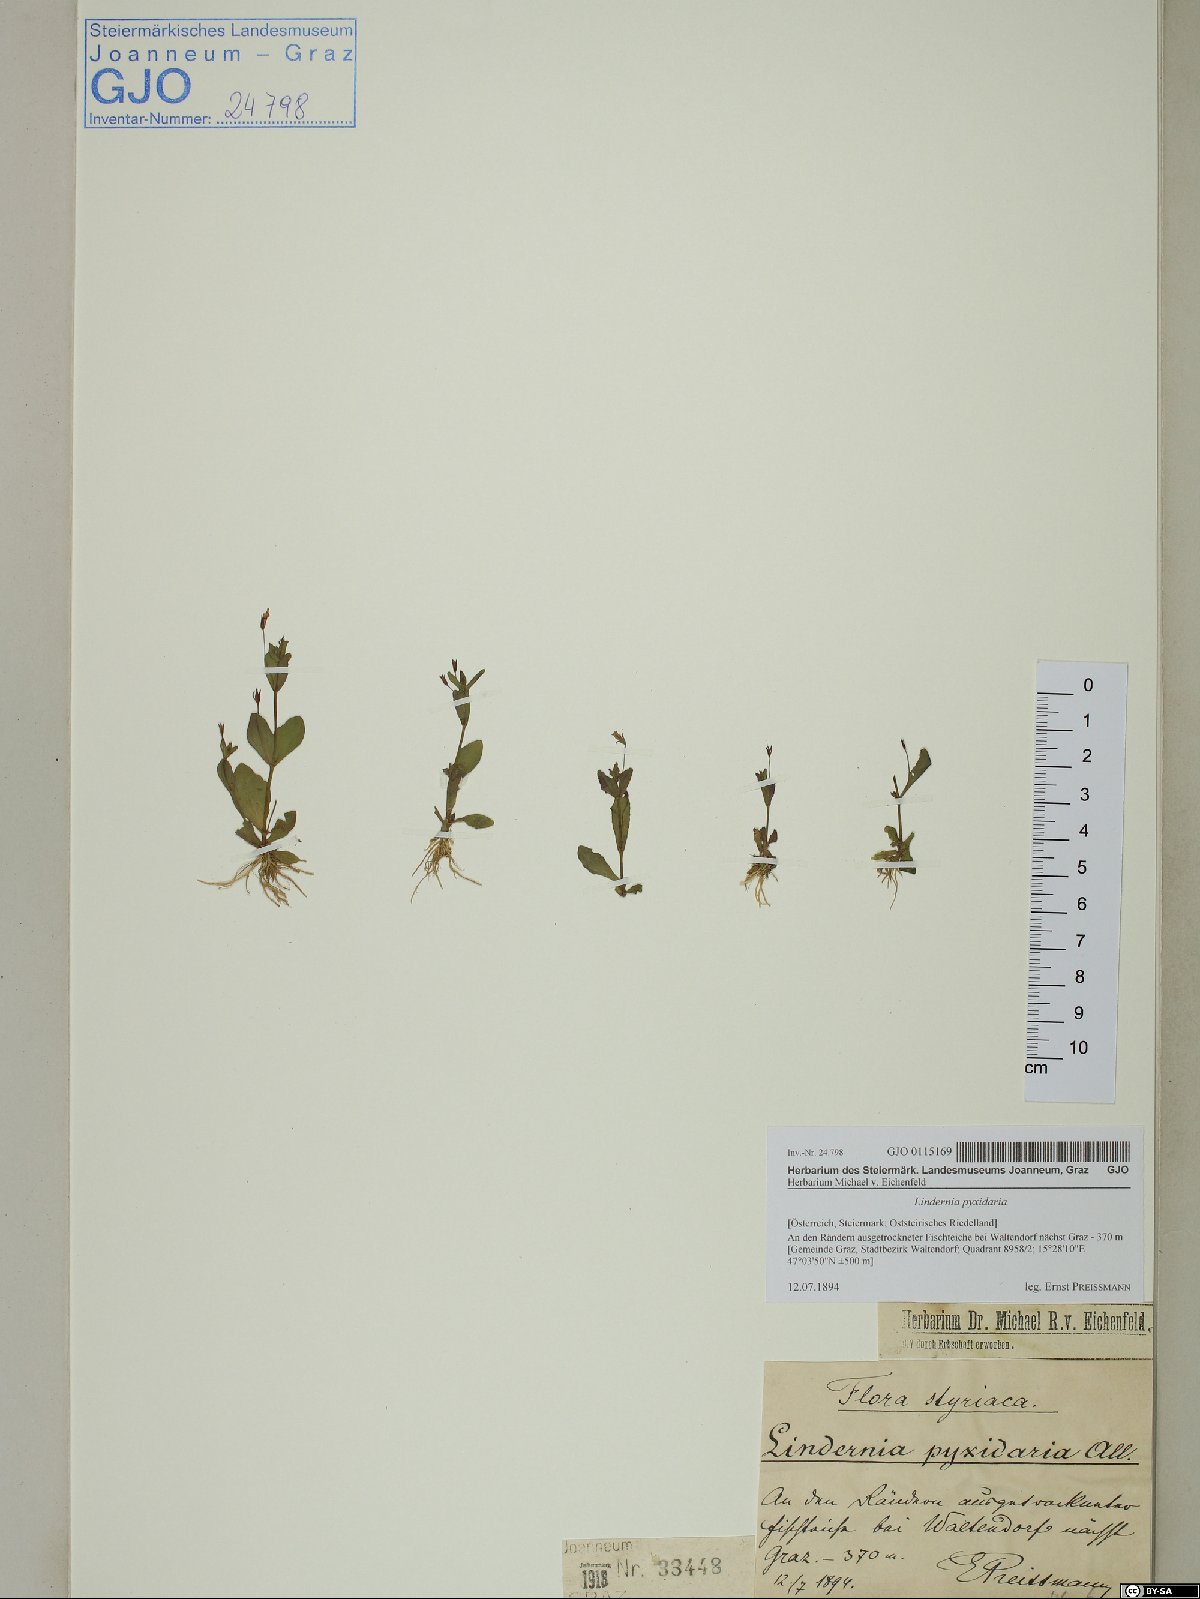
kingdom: Plantae
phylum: Tracheophyta
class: Magnoliopsida
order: Lamiales
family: Linderniaceae
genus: Lindernia
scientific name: Lindernia dubia
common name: Annual false pimpernel
